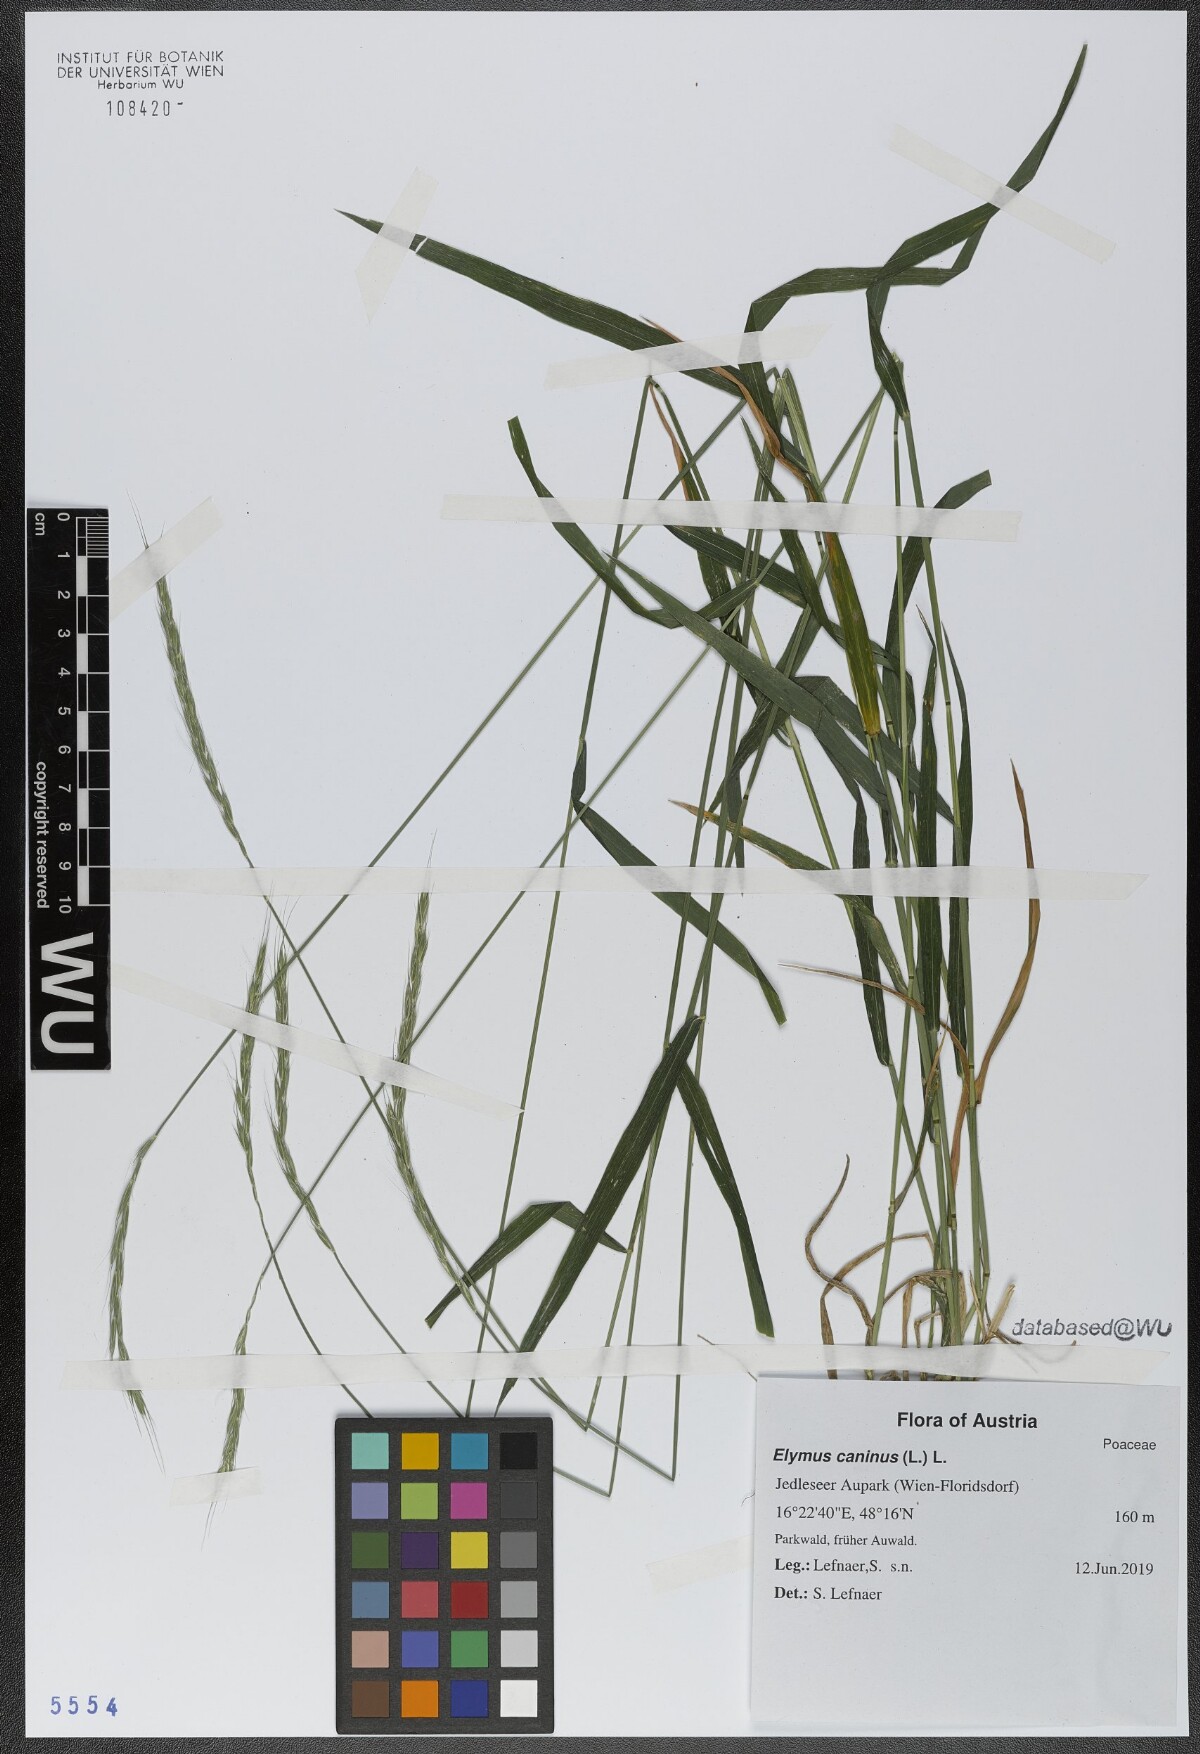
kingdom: Plantae
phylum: Tracheophyta
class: Liliopsida
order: Poales
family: Poaceae
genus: Elymus
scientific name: Elymus caninus
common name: Bearded couch
